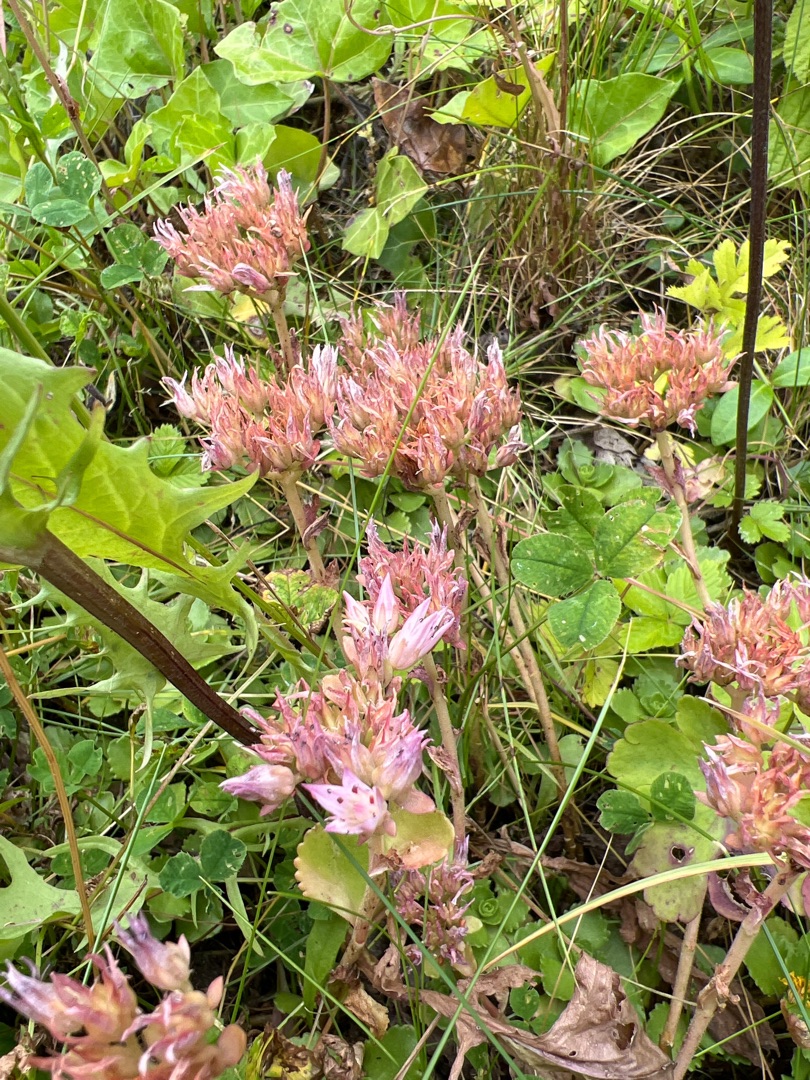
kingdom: Plantae
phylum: Tracheophyta
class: Magnoliopsida
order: Saxifragales
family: Crassulaceae
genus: Phedimus
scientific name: Phedimus spurius
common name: Rød stenurt
